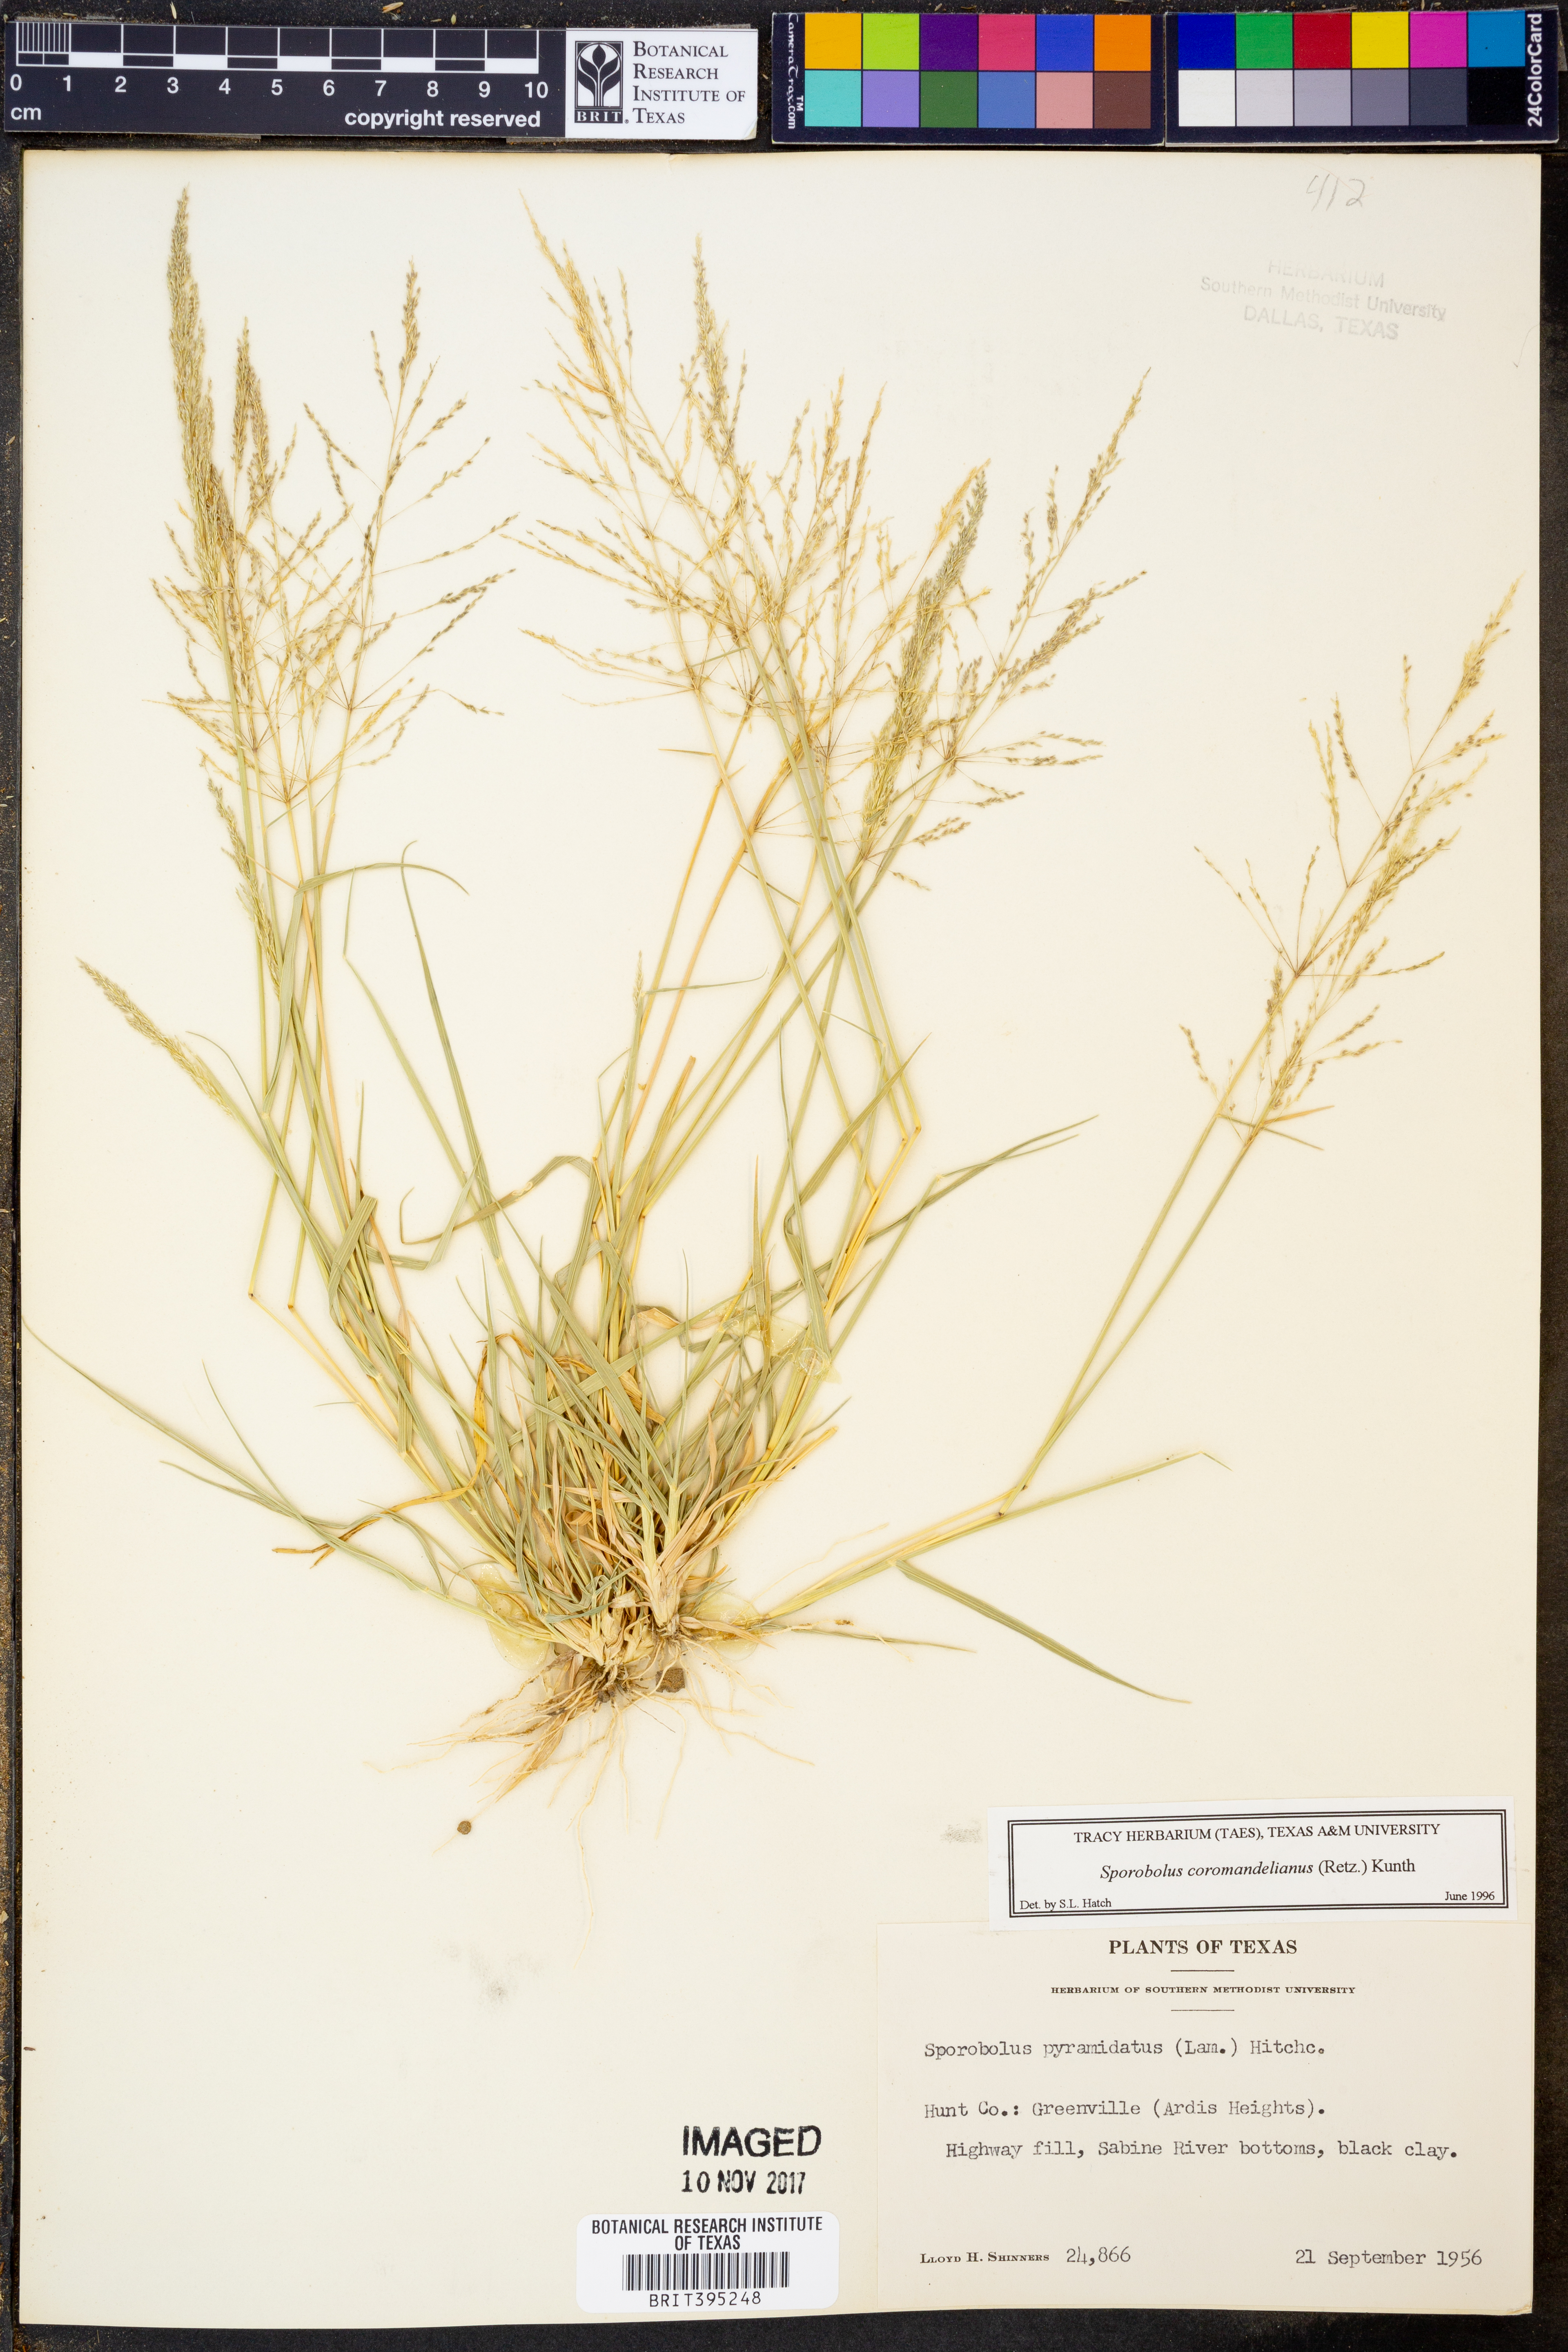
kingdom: Plantae
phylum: Tracheophyta
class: Liliopsida
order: Poales
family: Poaceae
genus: Sporobolus
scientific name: Sporobolus coromandelianus
